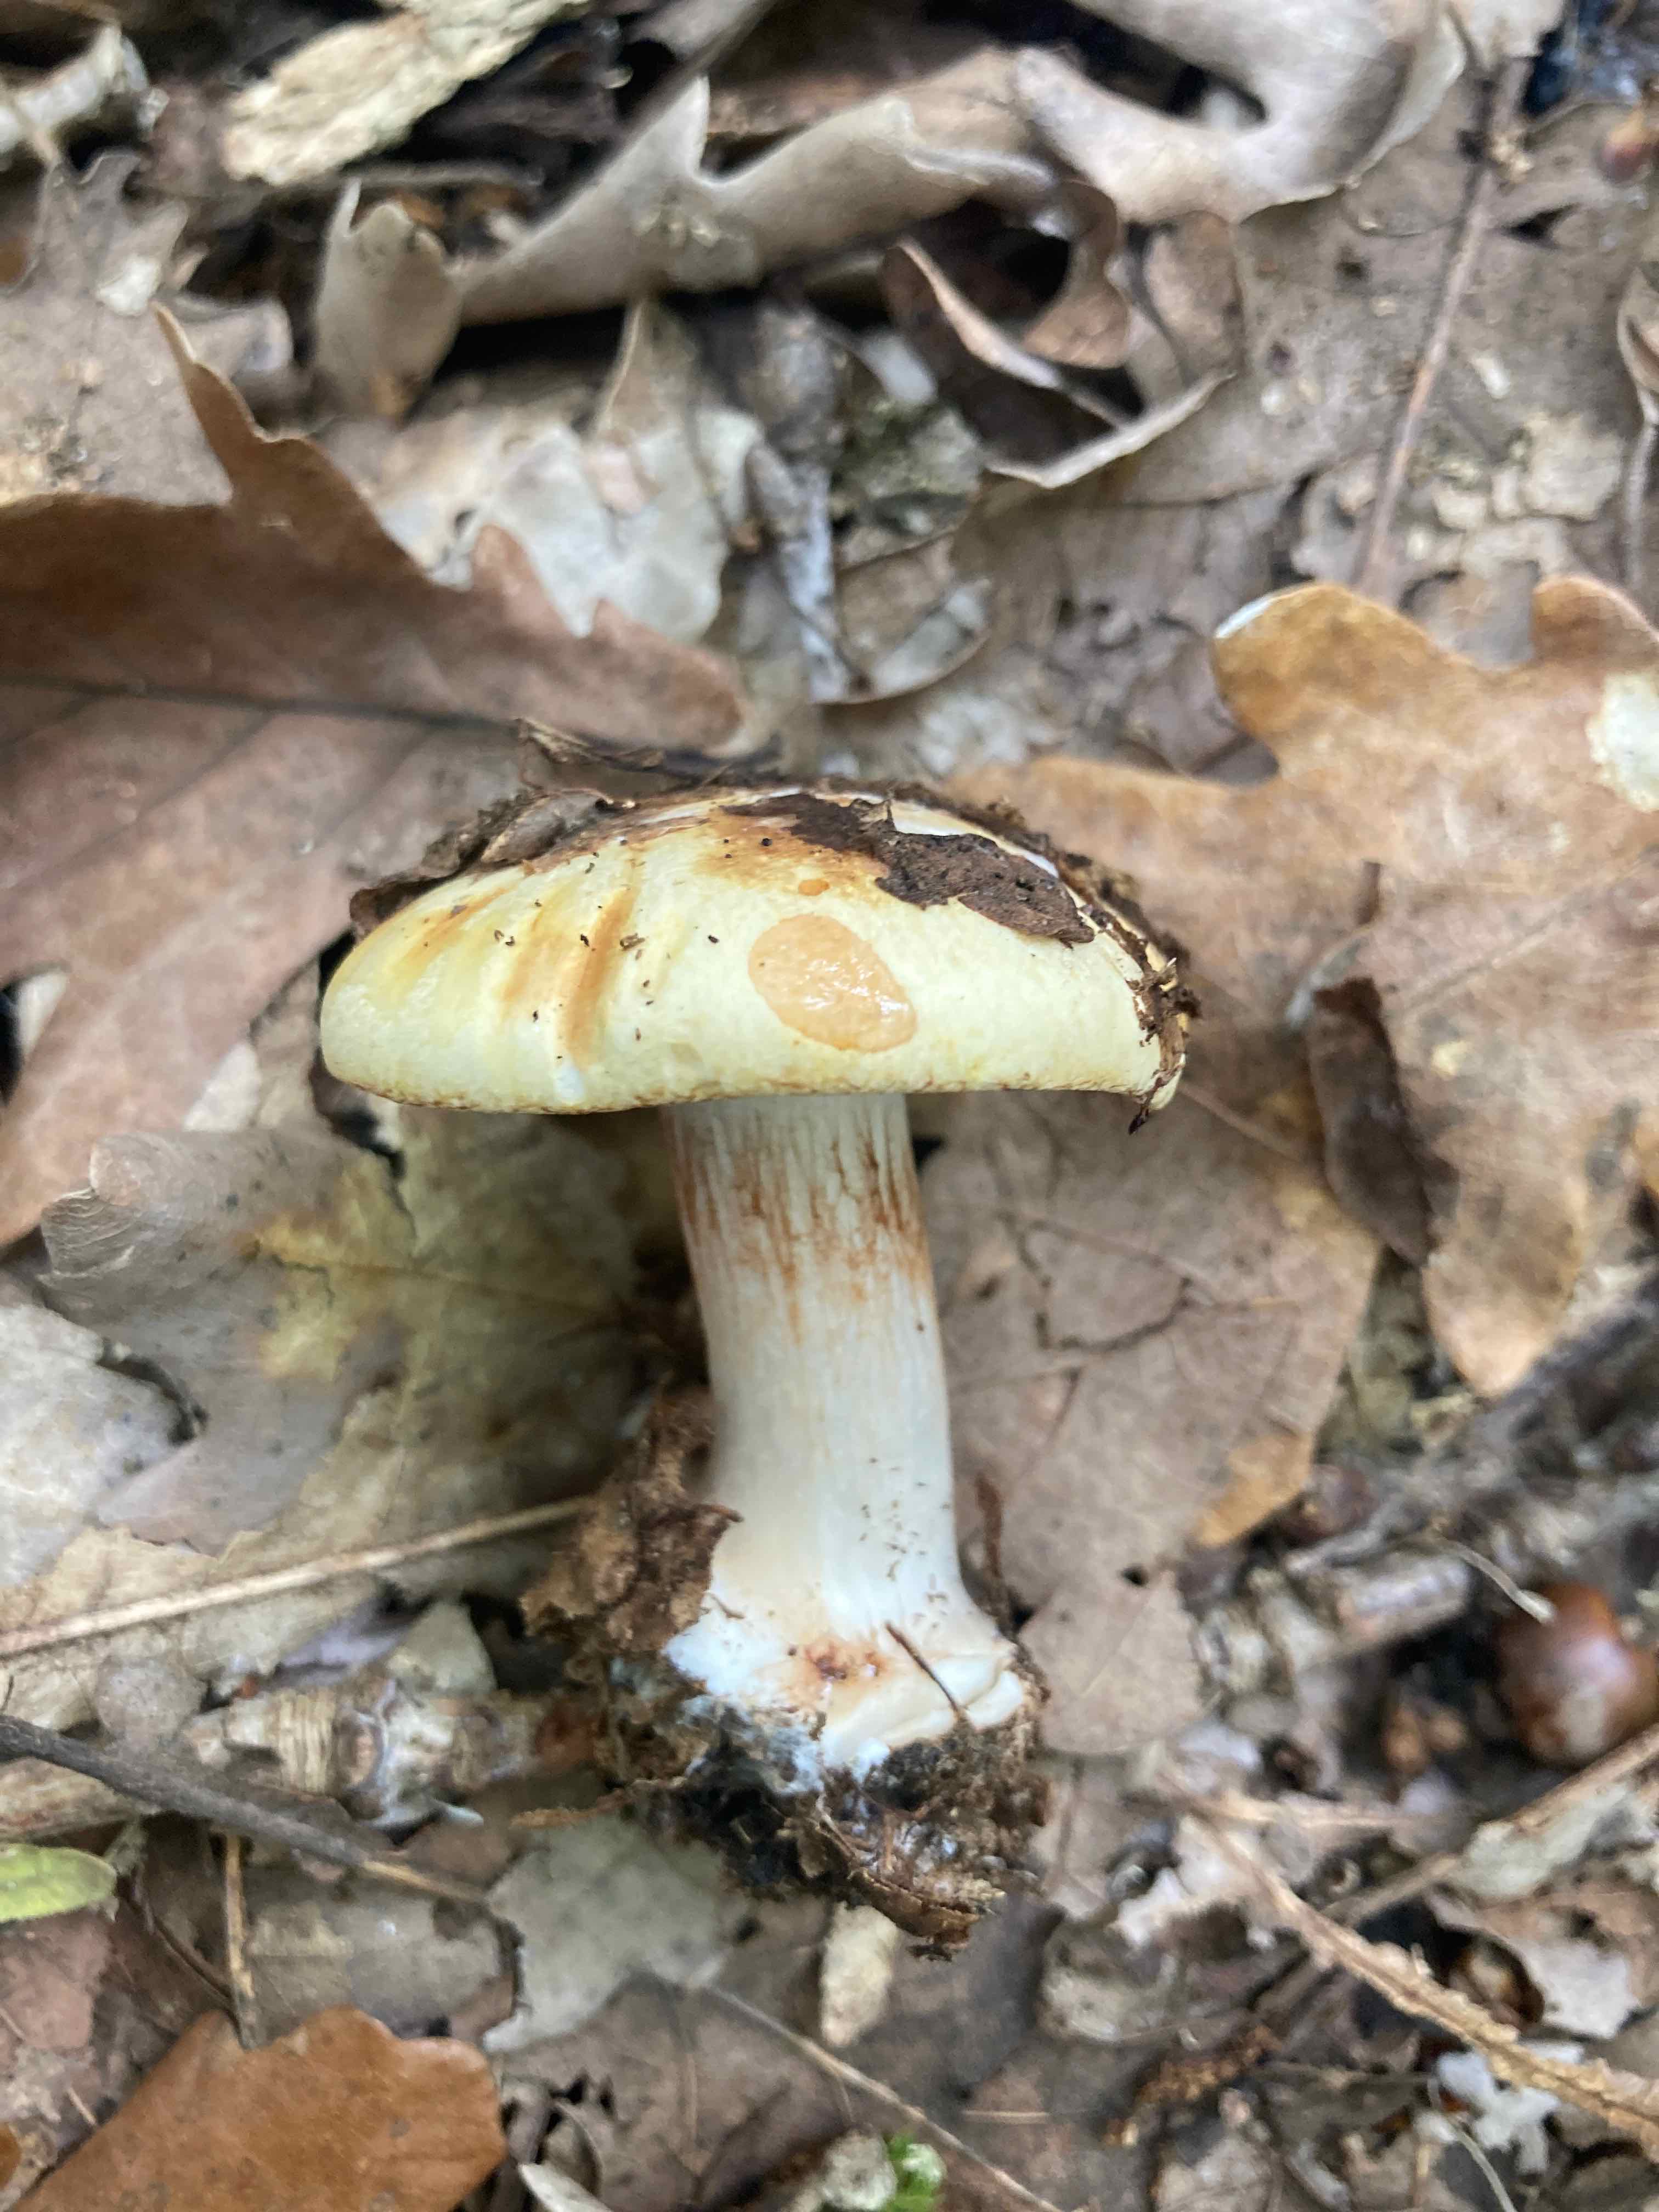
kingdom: Fungi
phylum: Basidiomycota
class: Agaricomycetes
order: Agaricales
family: Cortinariaceae
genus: Calonarius
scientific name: Calonarius
